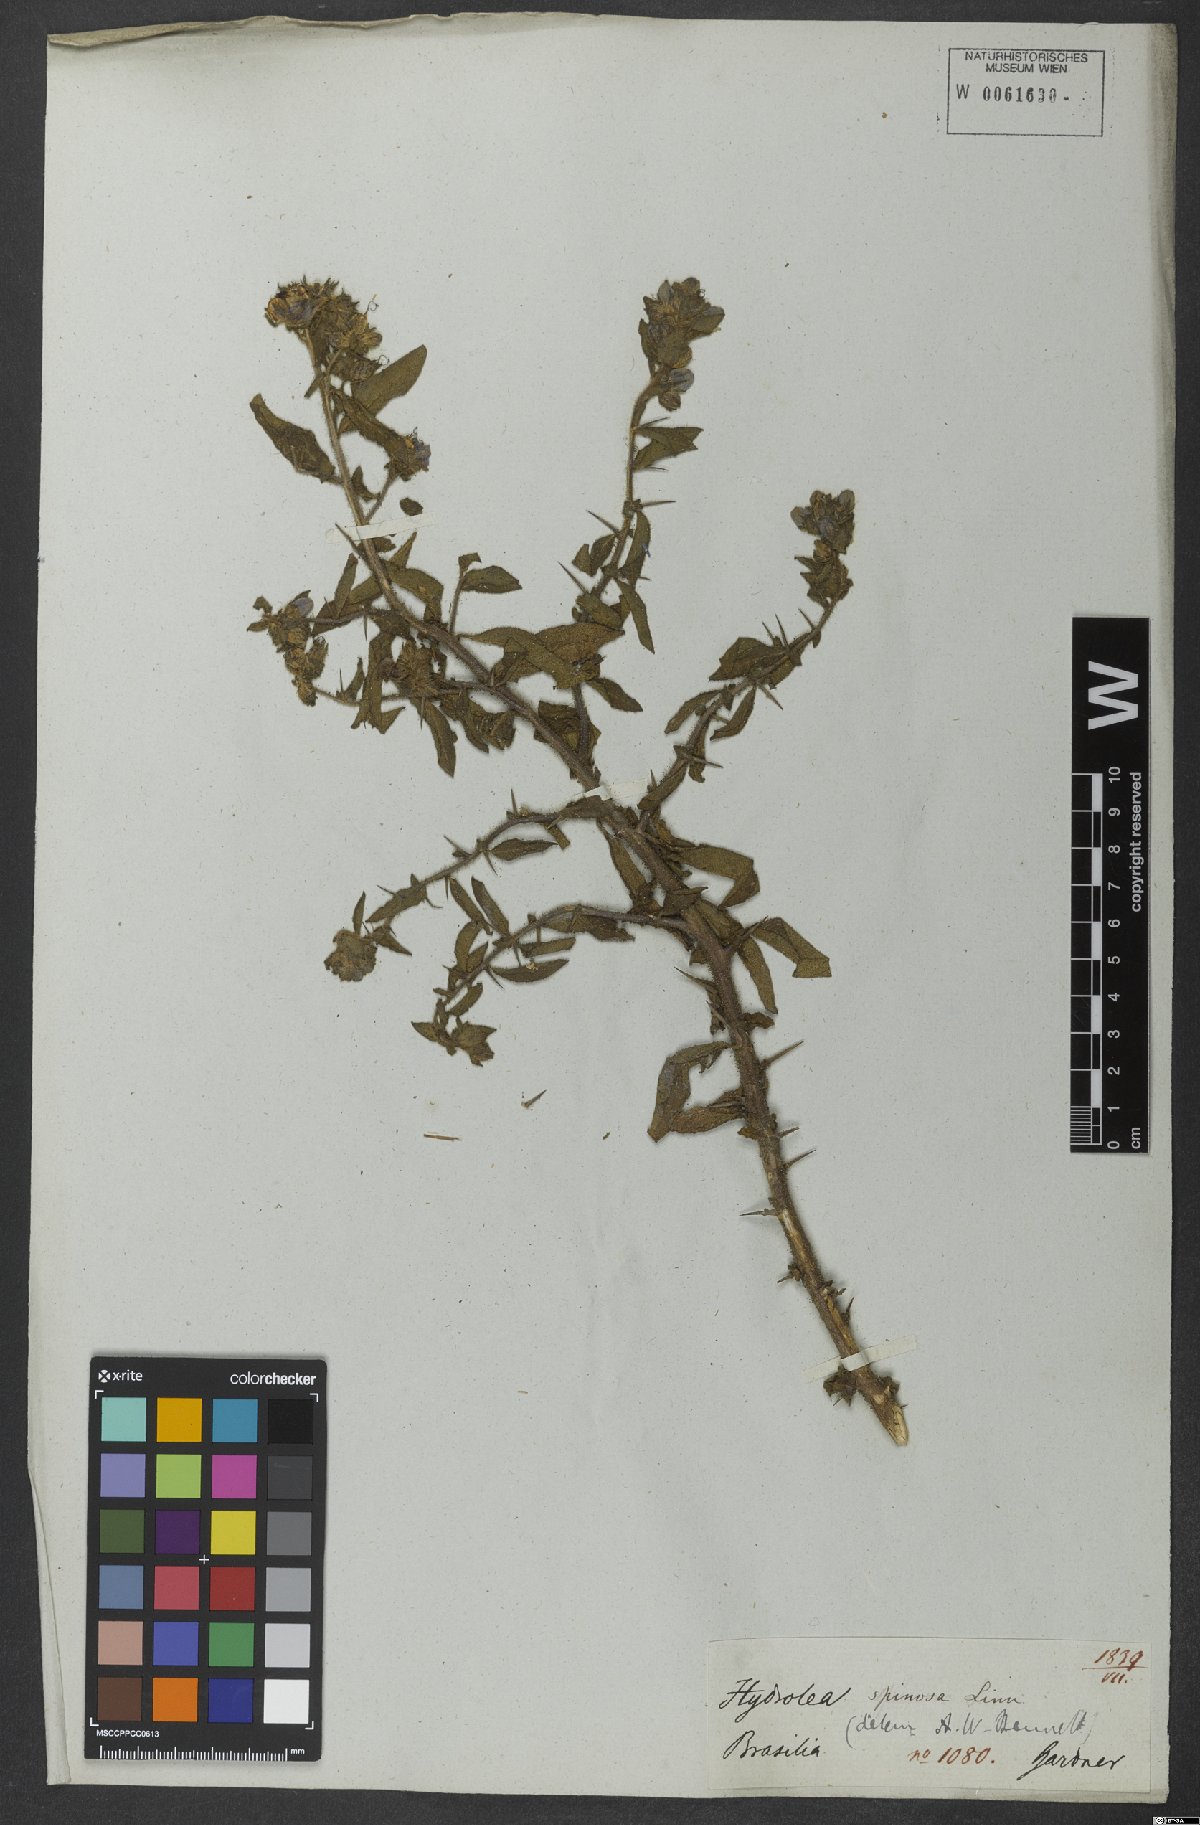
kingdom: Plantae
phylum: Tracheophyta
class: Magnoliopsida
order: Solanales
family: Hydroleaceae
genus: Hydrolea
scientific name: Hydrolea spinosa
